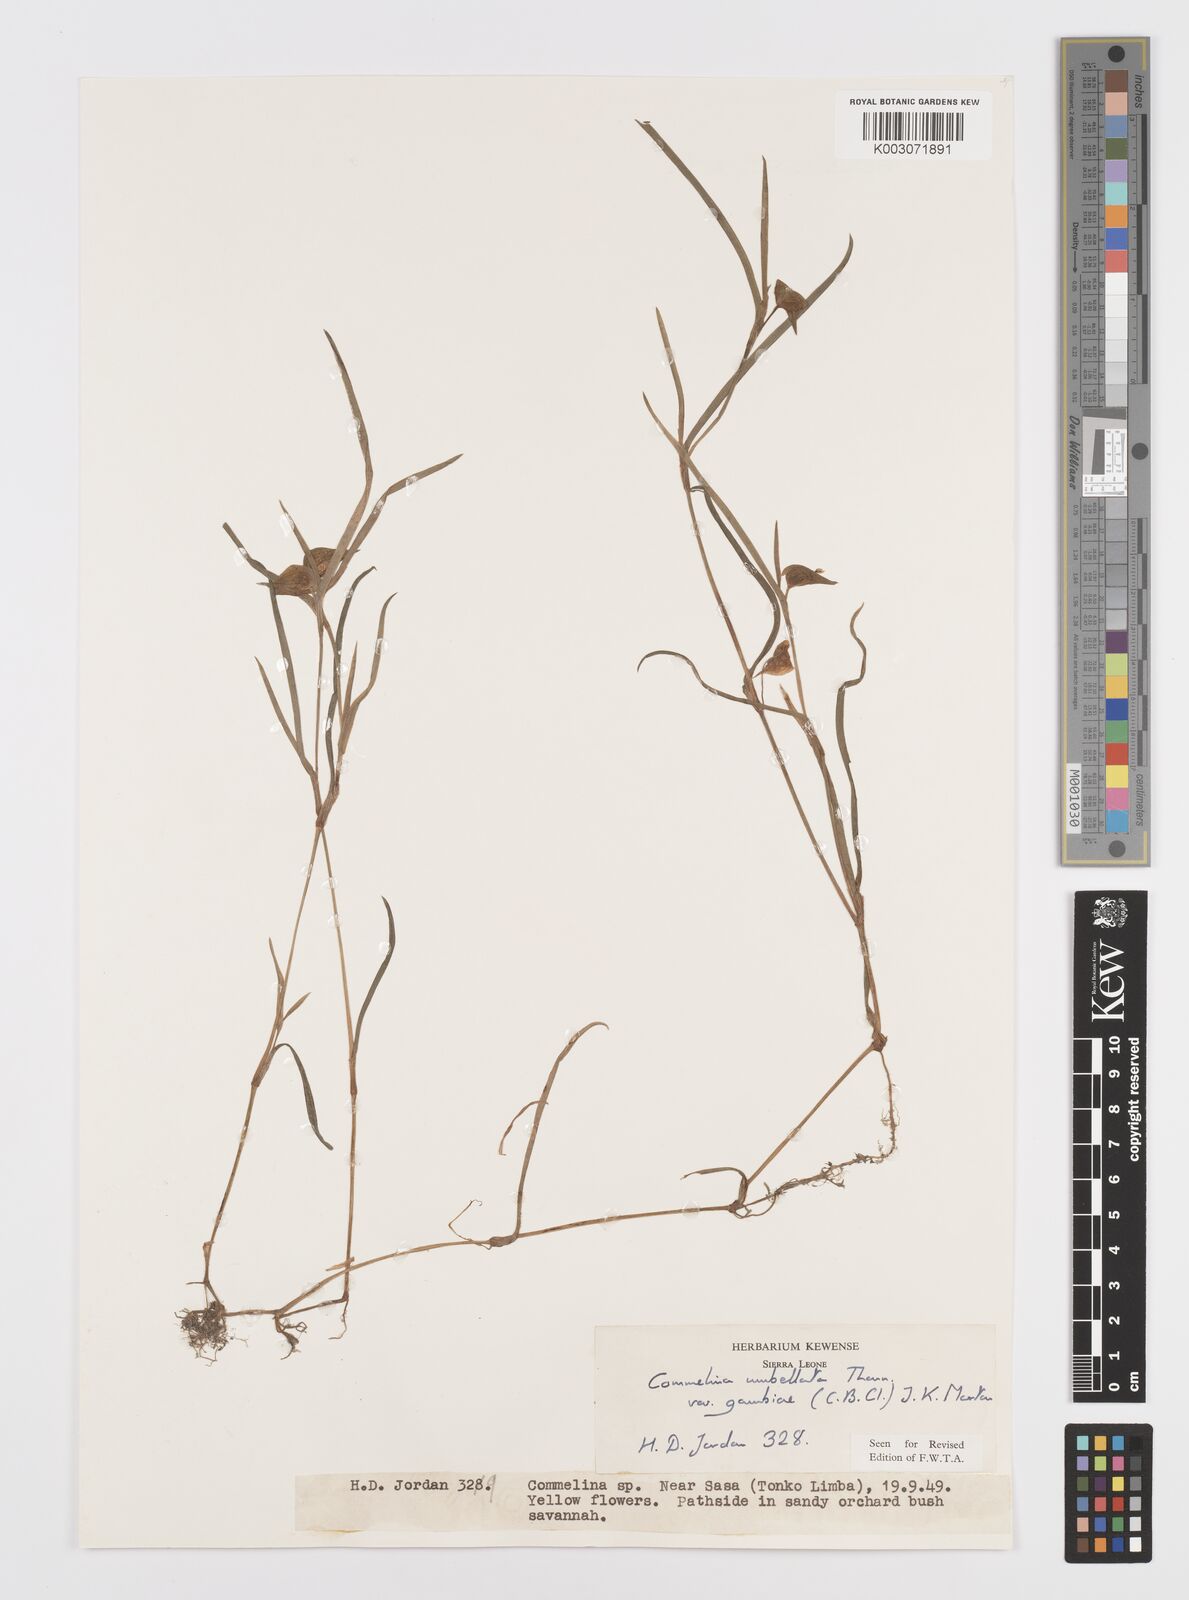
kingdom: Plantae
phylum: Tracheophyta
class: Liliopsida
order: Commelinales
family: Commelinaceae
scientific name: Commelinaceae
